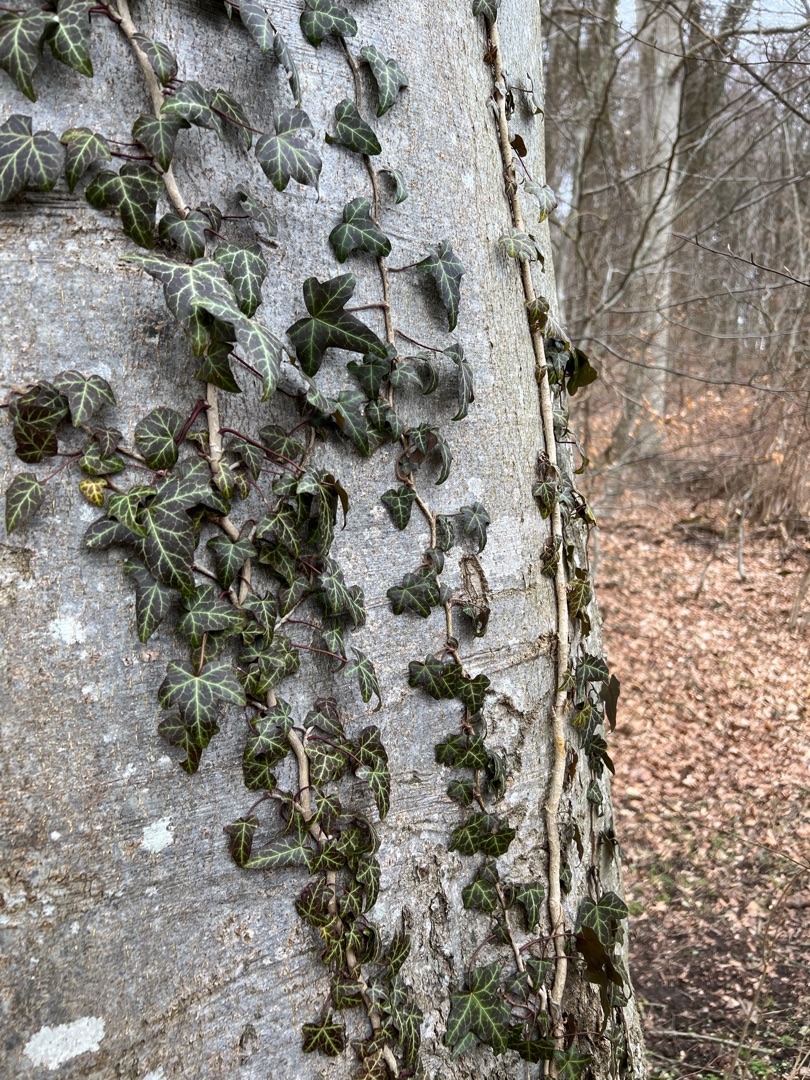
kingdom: Plantae
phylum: Tracheophyta
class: Magnoliopsida
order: Apiales
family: Araliaceae
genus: Hedera
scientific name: Hedera helix
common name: Vedbend
